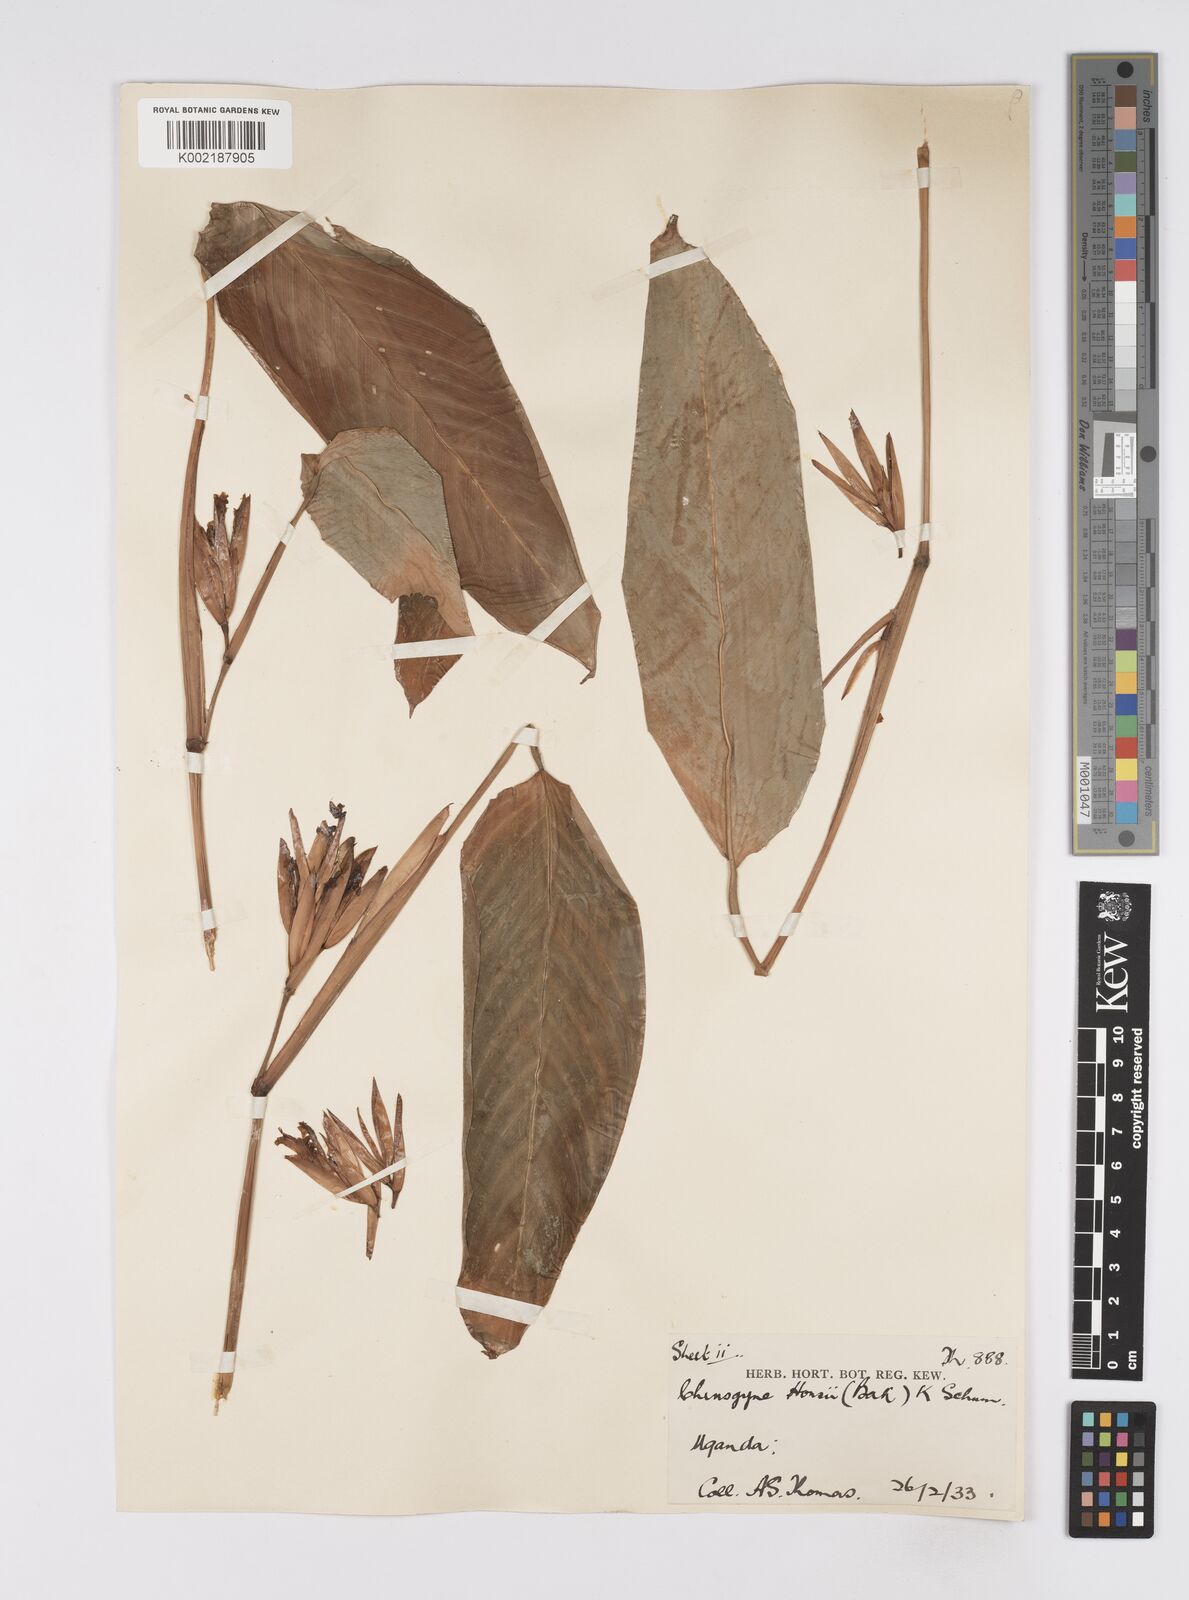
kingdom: Plantae
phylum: Tracheophyta
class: Liliopsida
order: Zingiberales
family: Marantaceae
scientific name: Marantaceae
